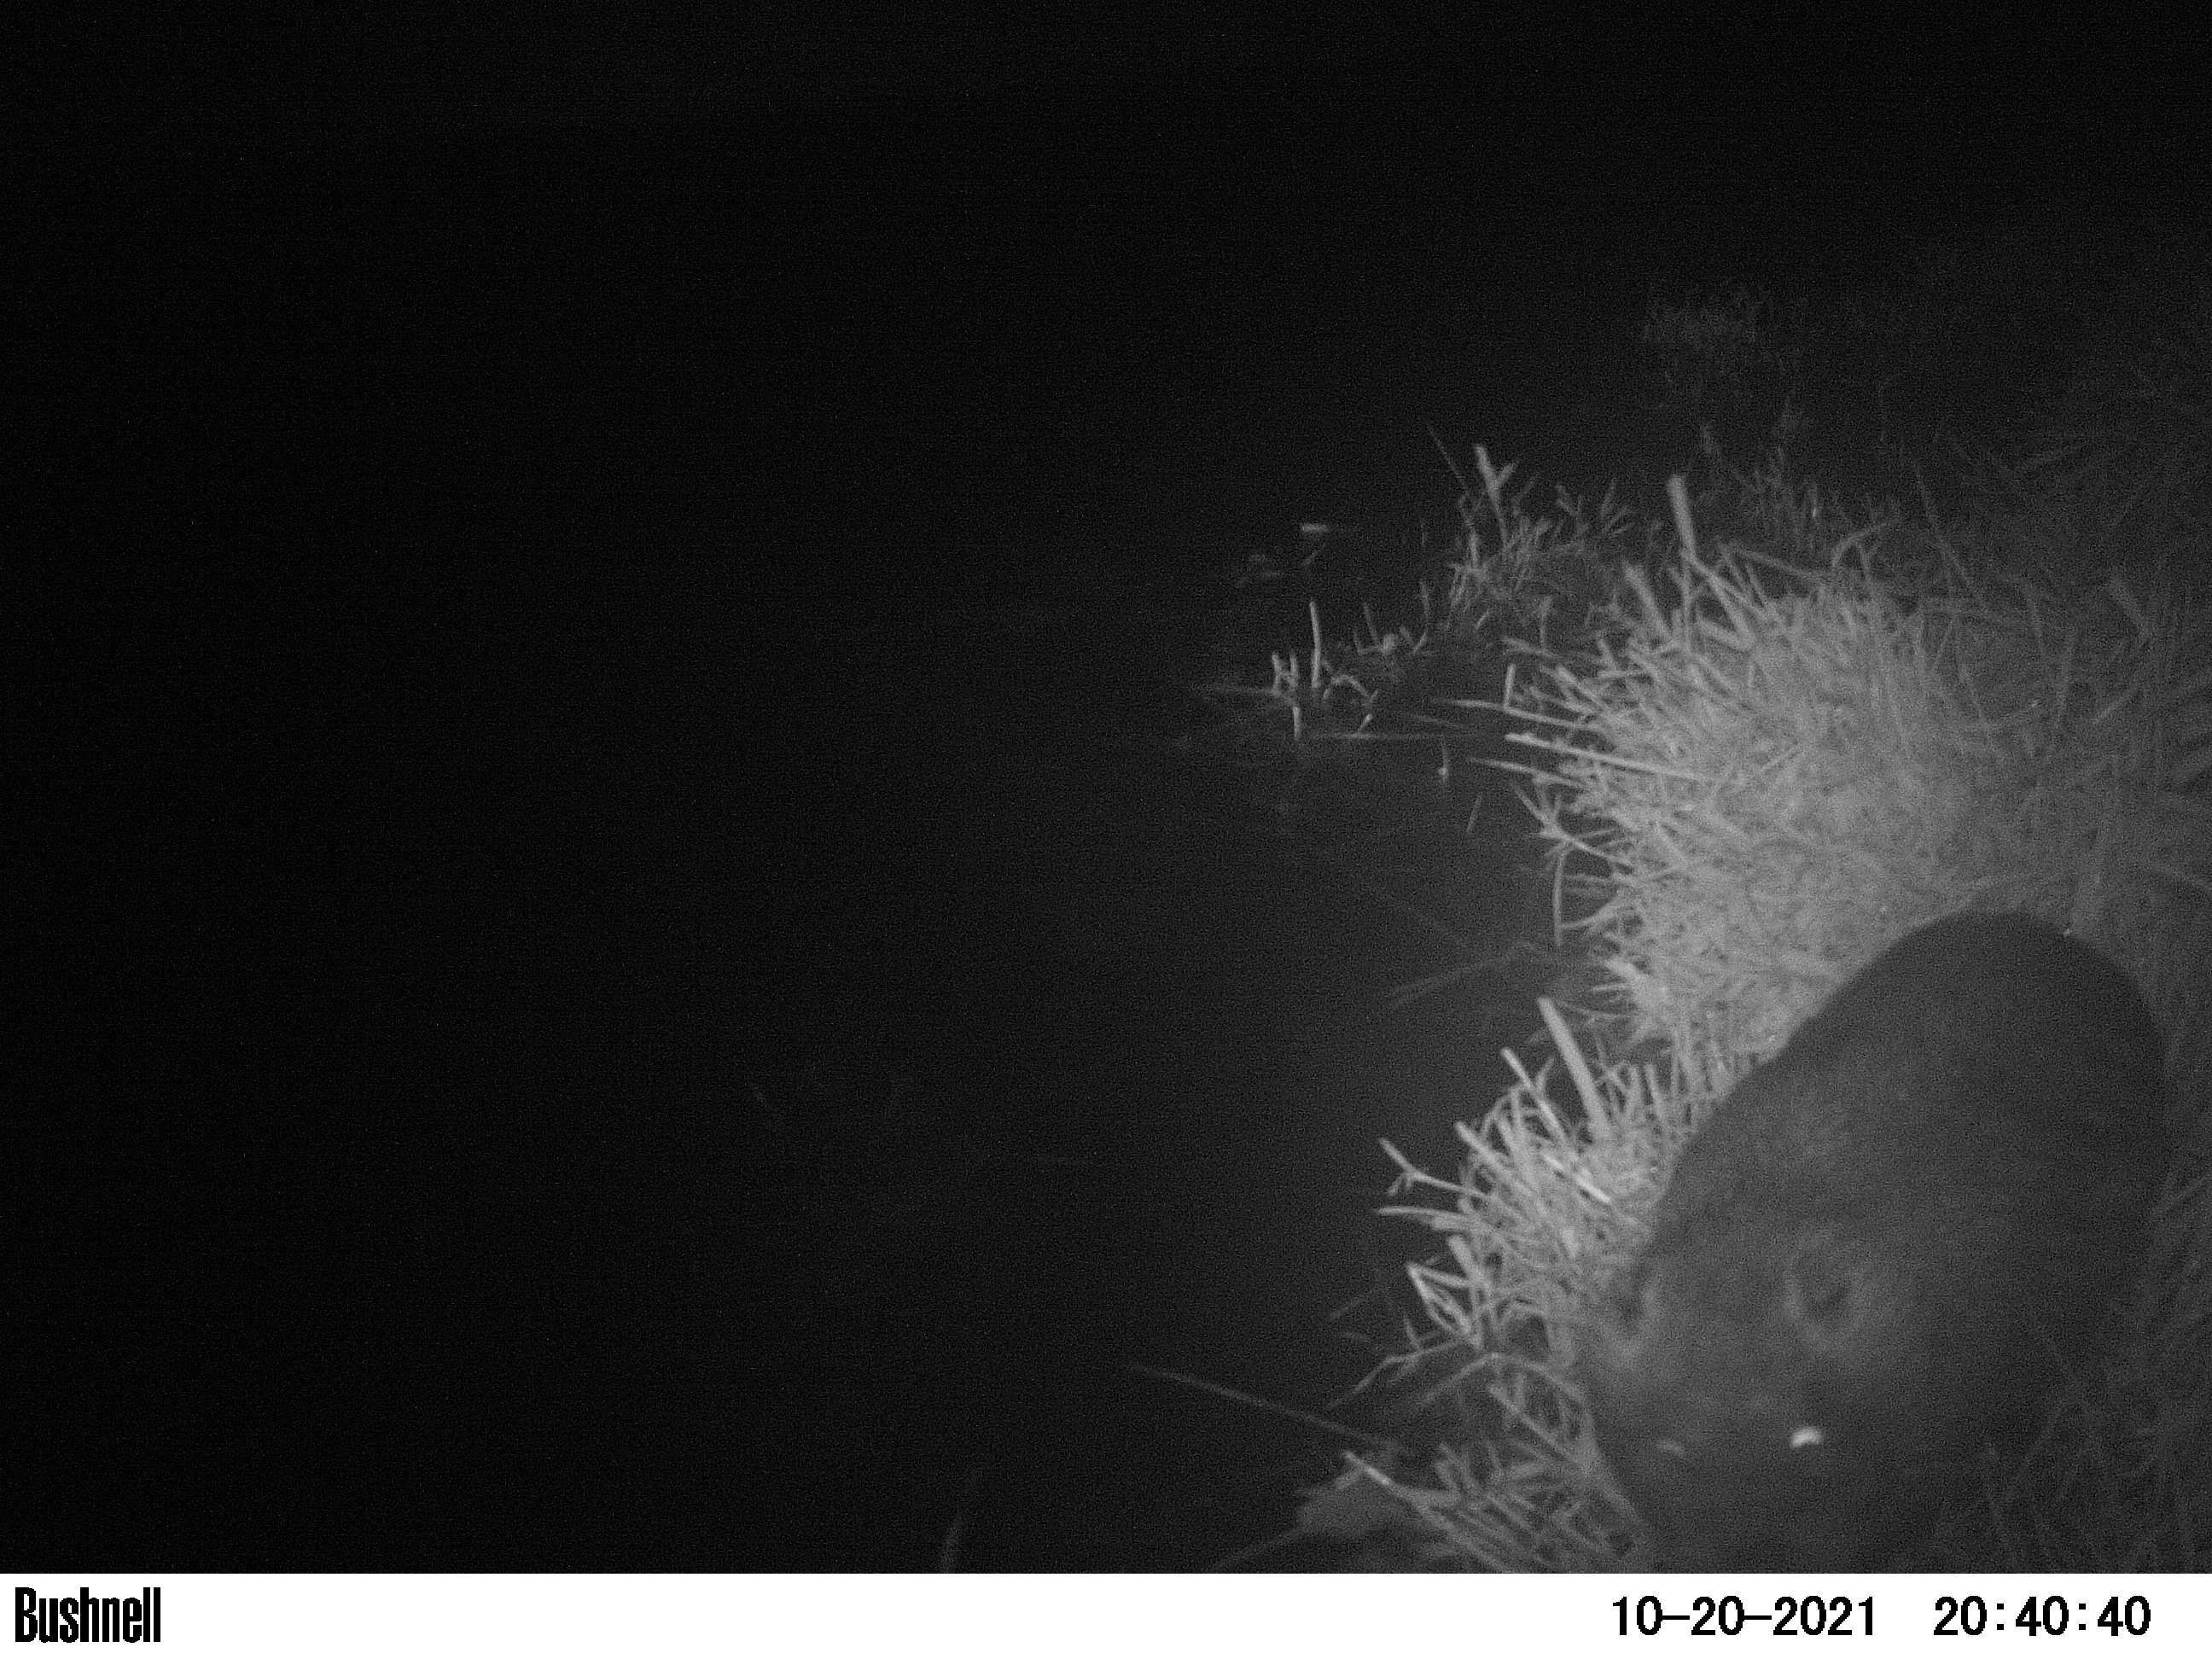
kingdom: Animalia
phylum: Chordata
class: Mammalia
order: Rodentia
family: Castoridae
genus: Castor
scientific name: Castor fiber
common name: Eurasian beaver
